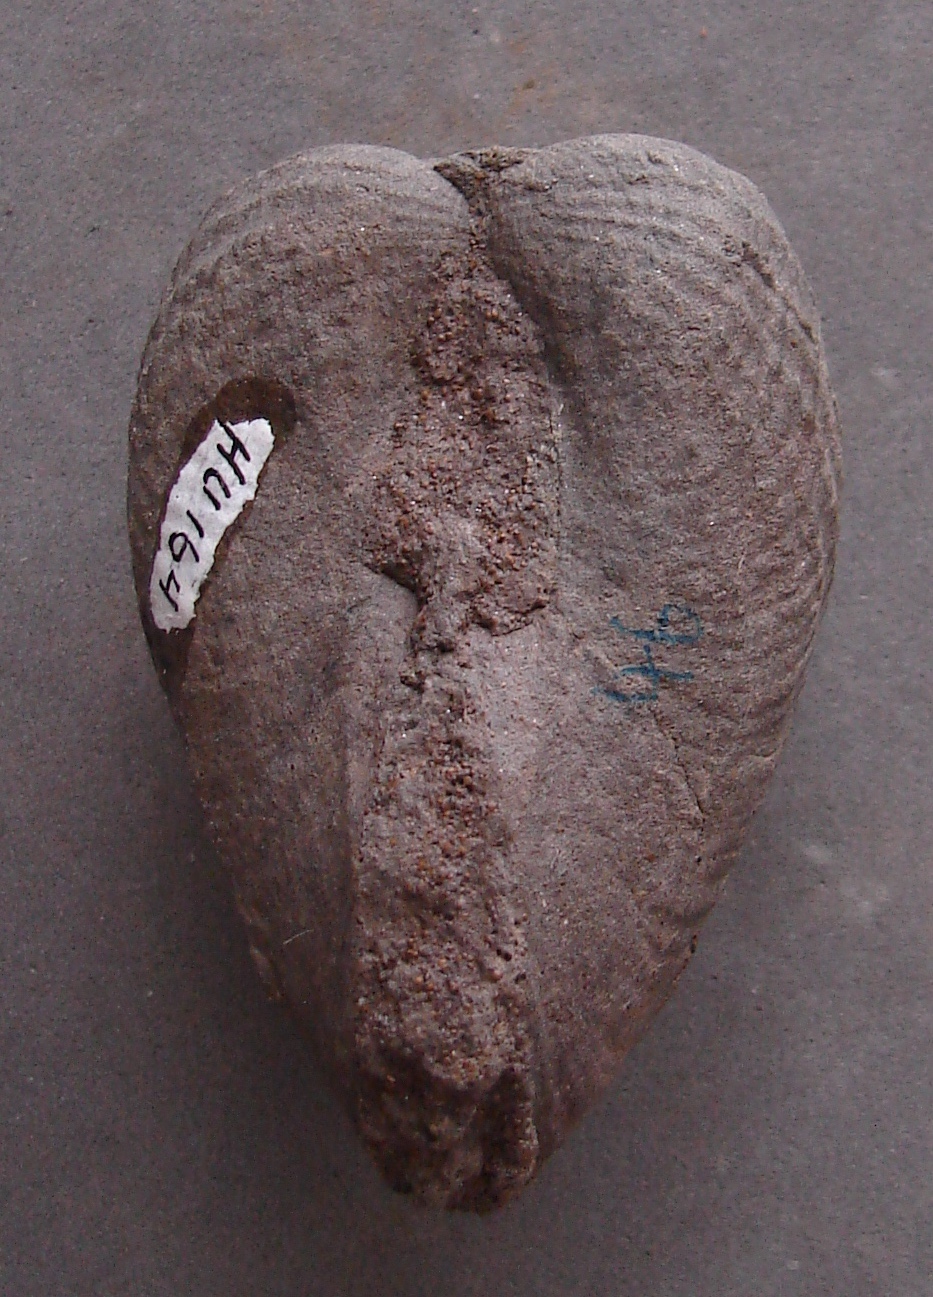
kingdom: Animalia
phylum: Mollusca
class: Bivalvia
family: Pholadomyidae
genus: Pholadomya
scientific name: Pholadomya
